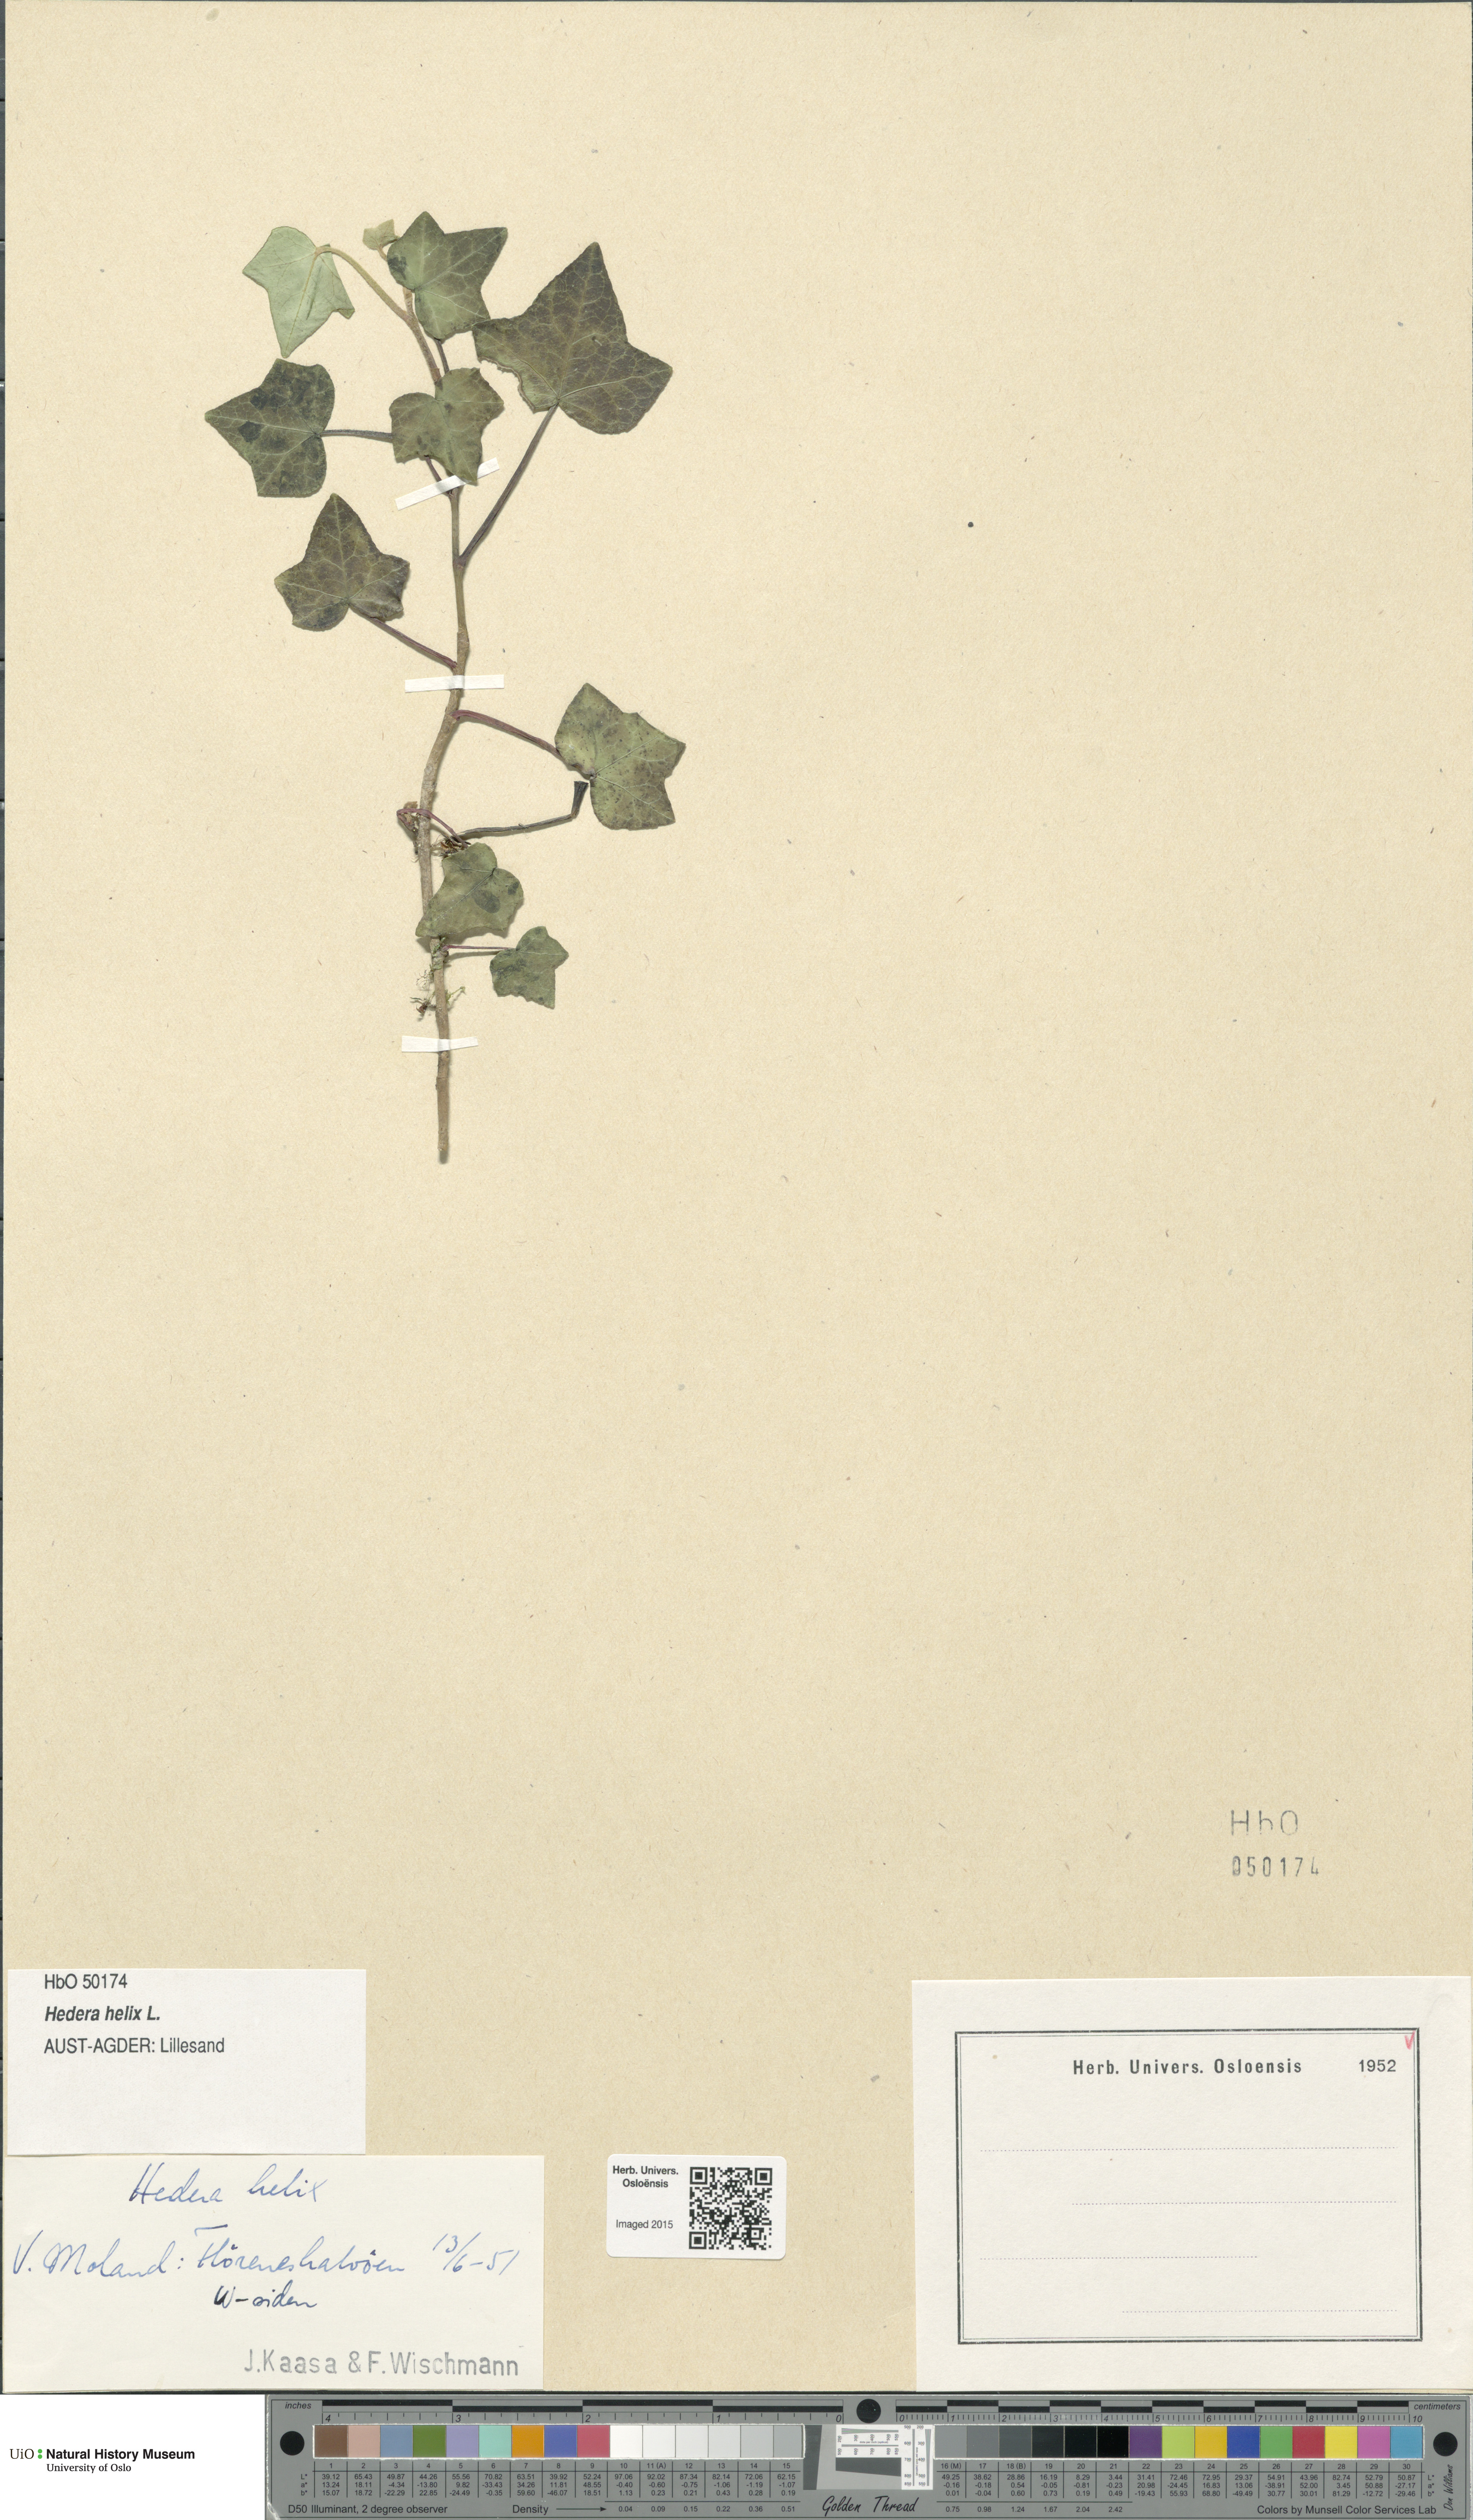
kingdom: Plantae
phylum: Tracheophyta
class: Magnoliopsida
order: Apiales
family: Araliaceae
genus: Hedera
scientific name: Hedera helix
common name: Ivy
